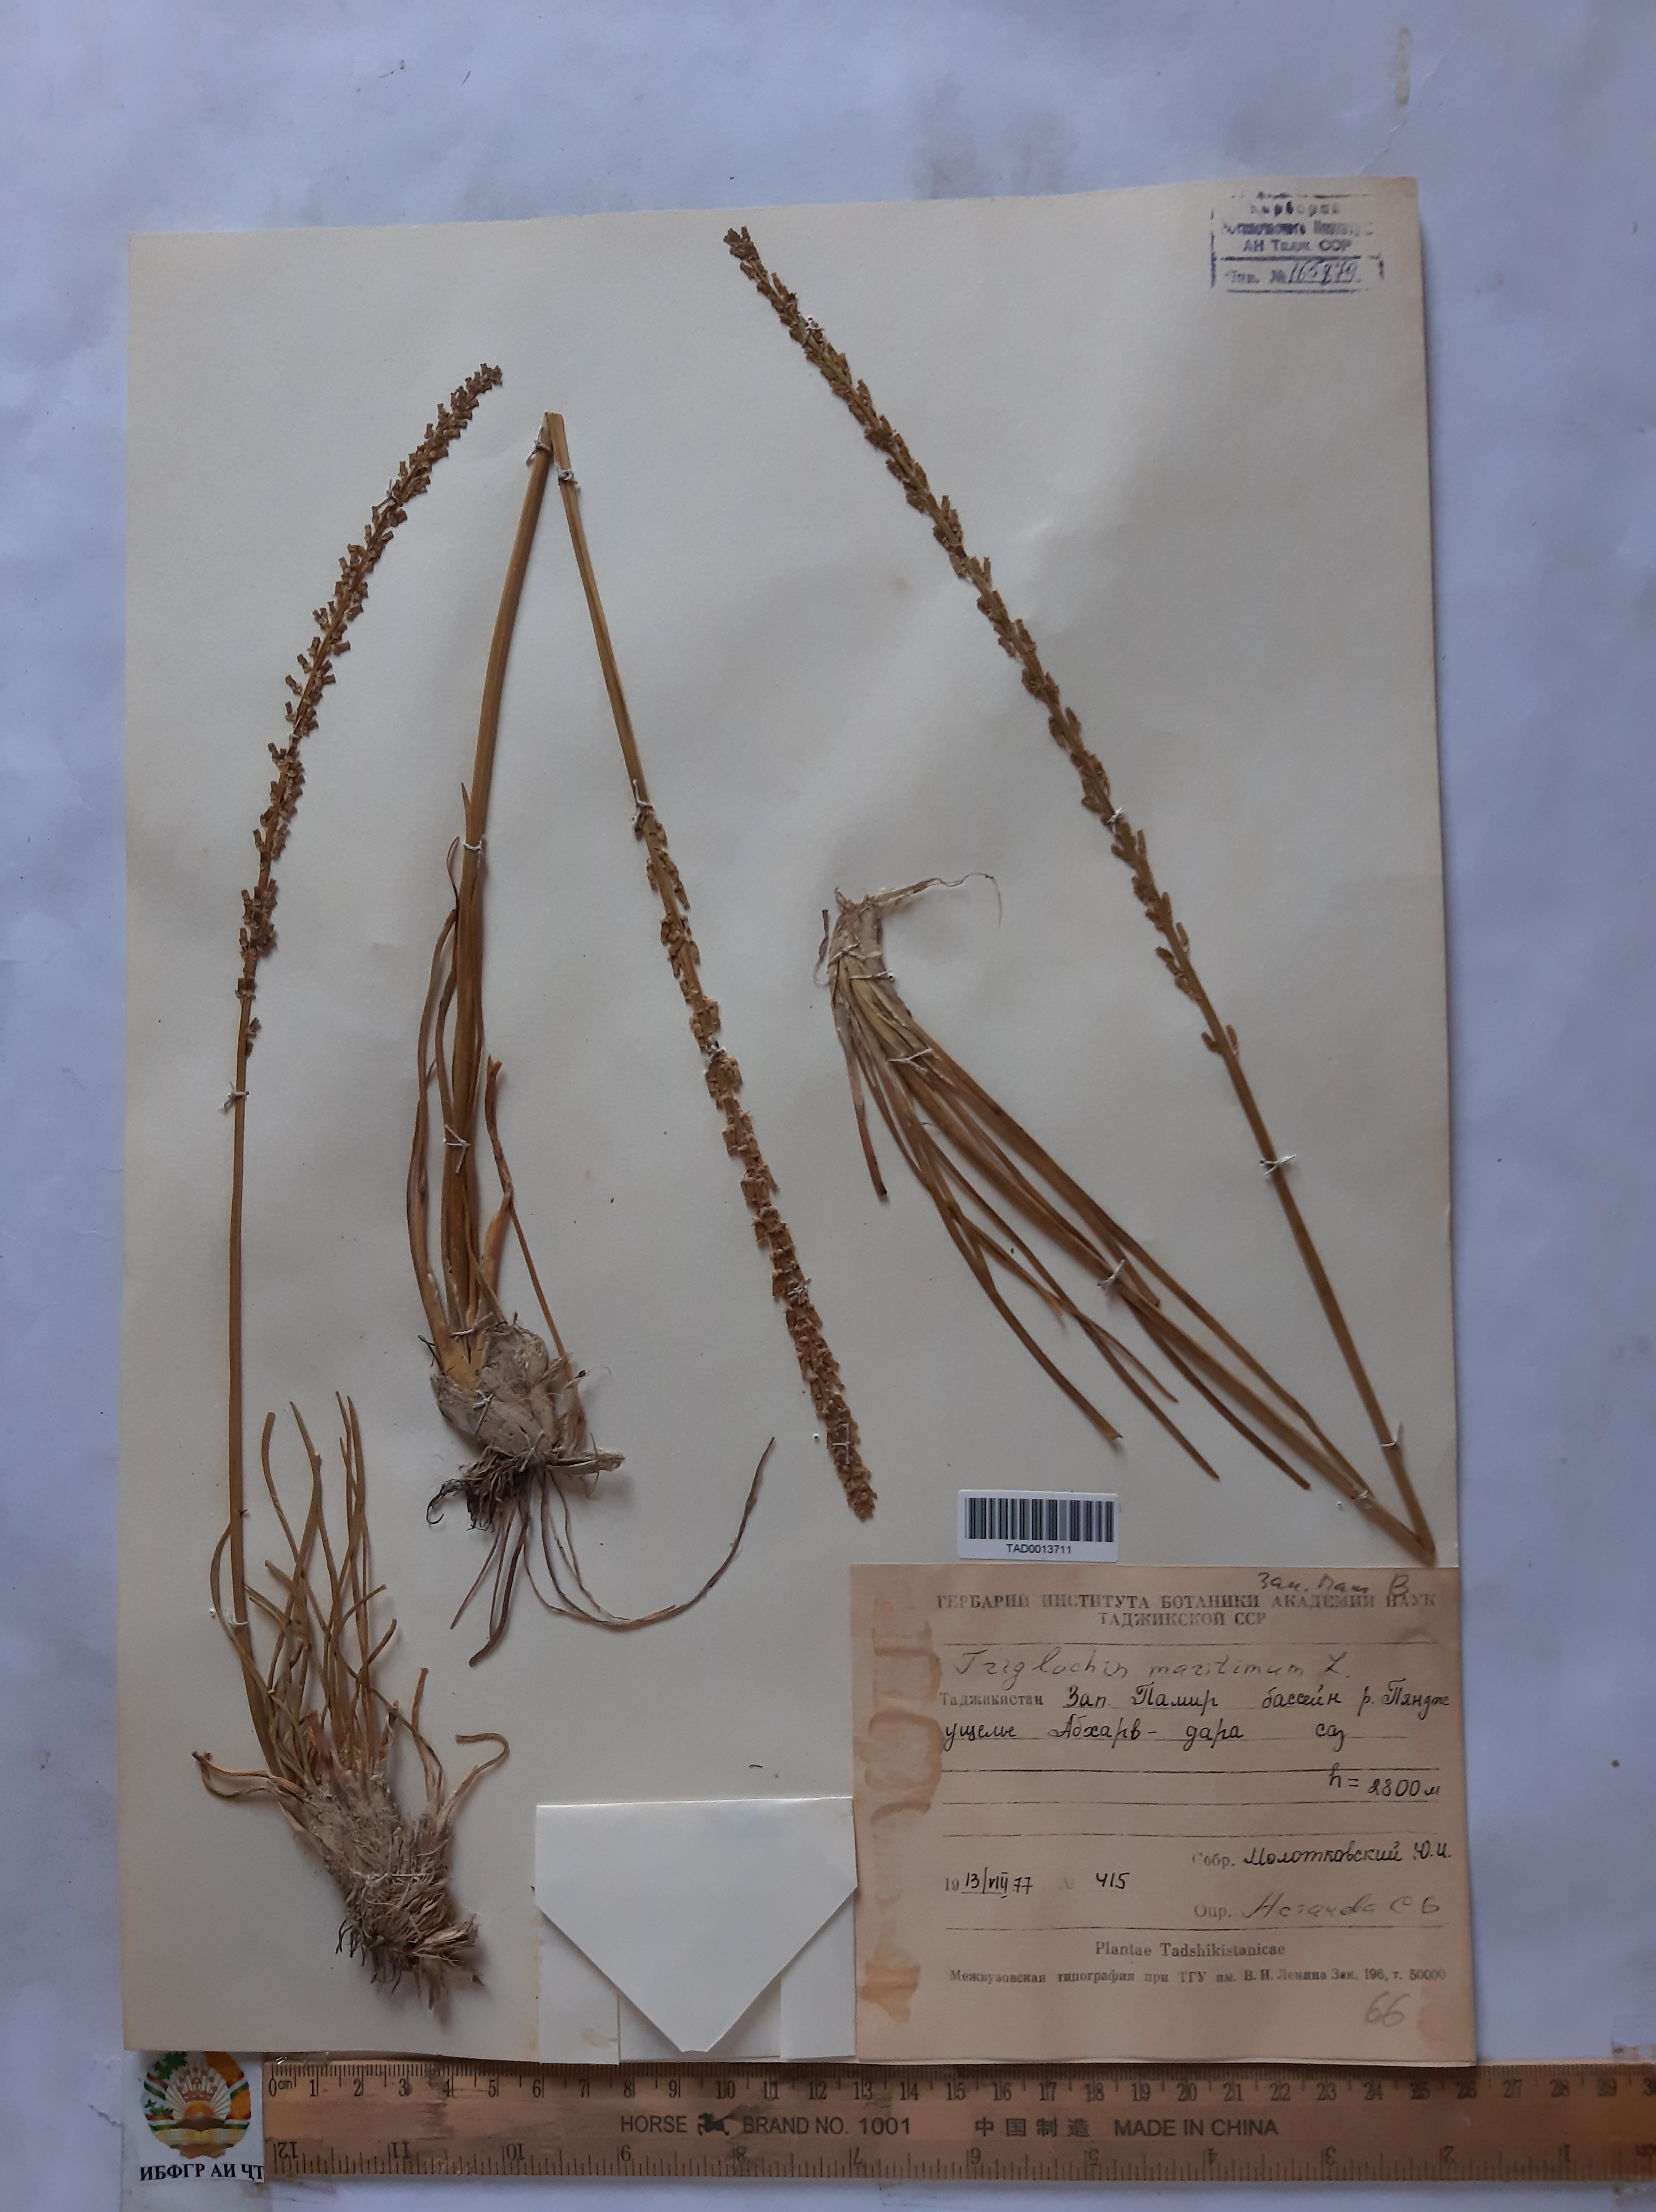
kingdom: Plantae
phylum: Tracheophyta
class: Liliopsida
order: Alismatales
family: Juncaginaceae
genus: Triglochin
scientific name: Triglochin maritima
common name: Sea arrowgrass
